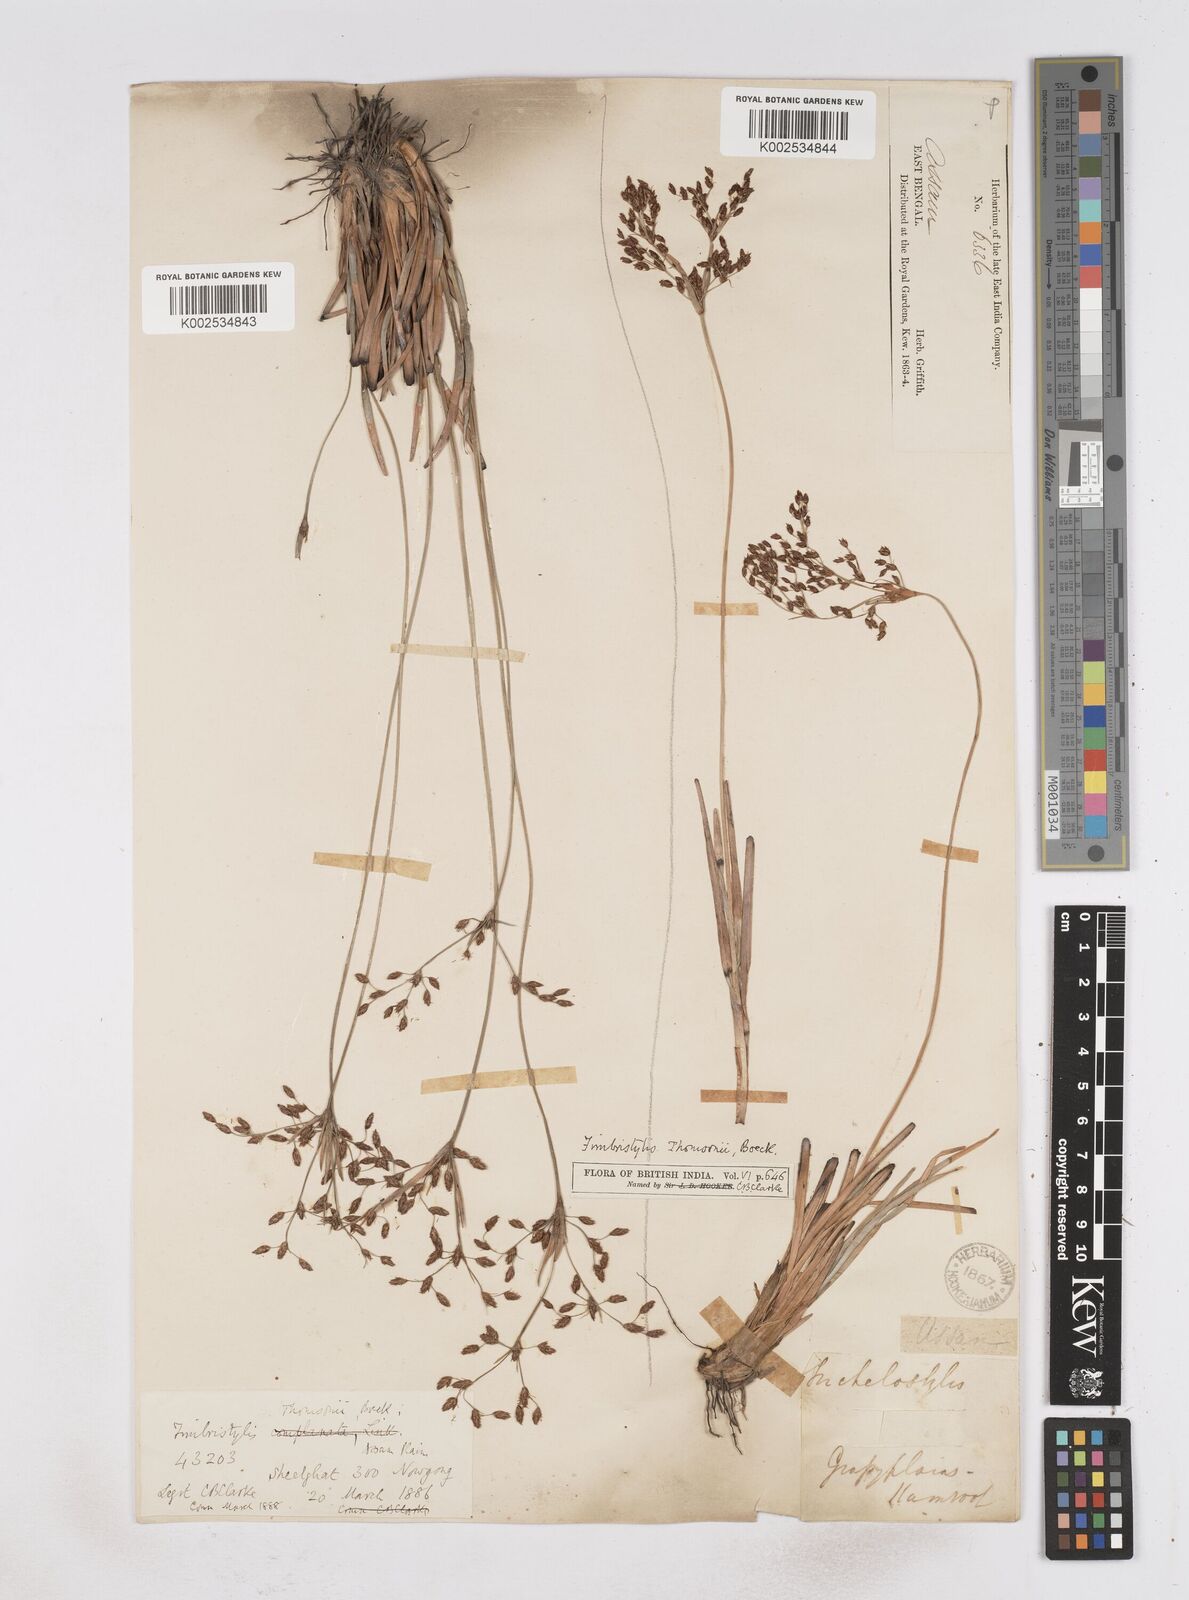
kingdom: Plantae
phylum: Tracheophyta
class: Liliopsida
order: Poales
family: Cyperaceae
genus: Fimbristylis
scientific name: Fimbristylis thomsonii
